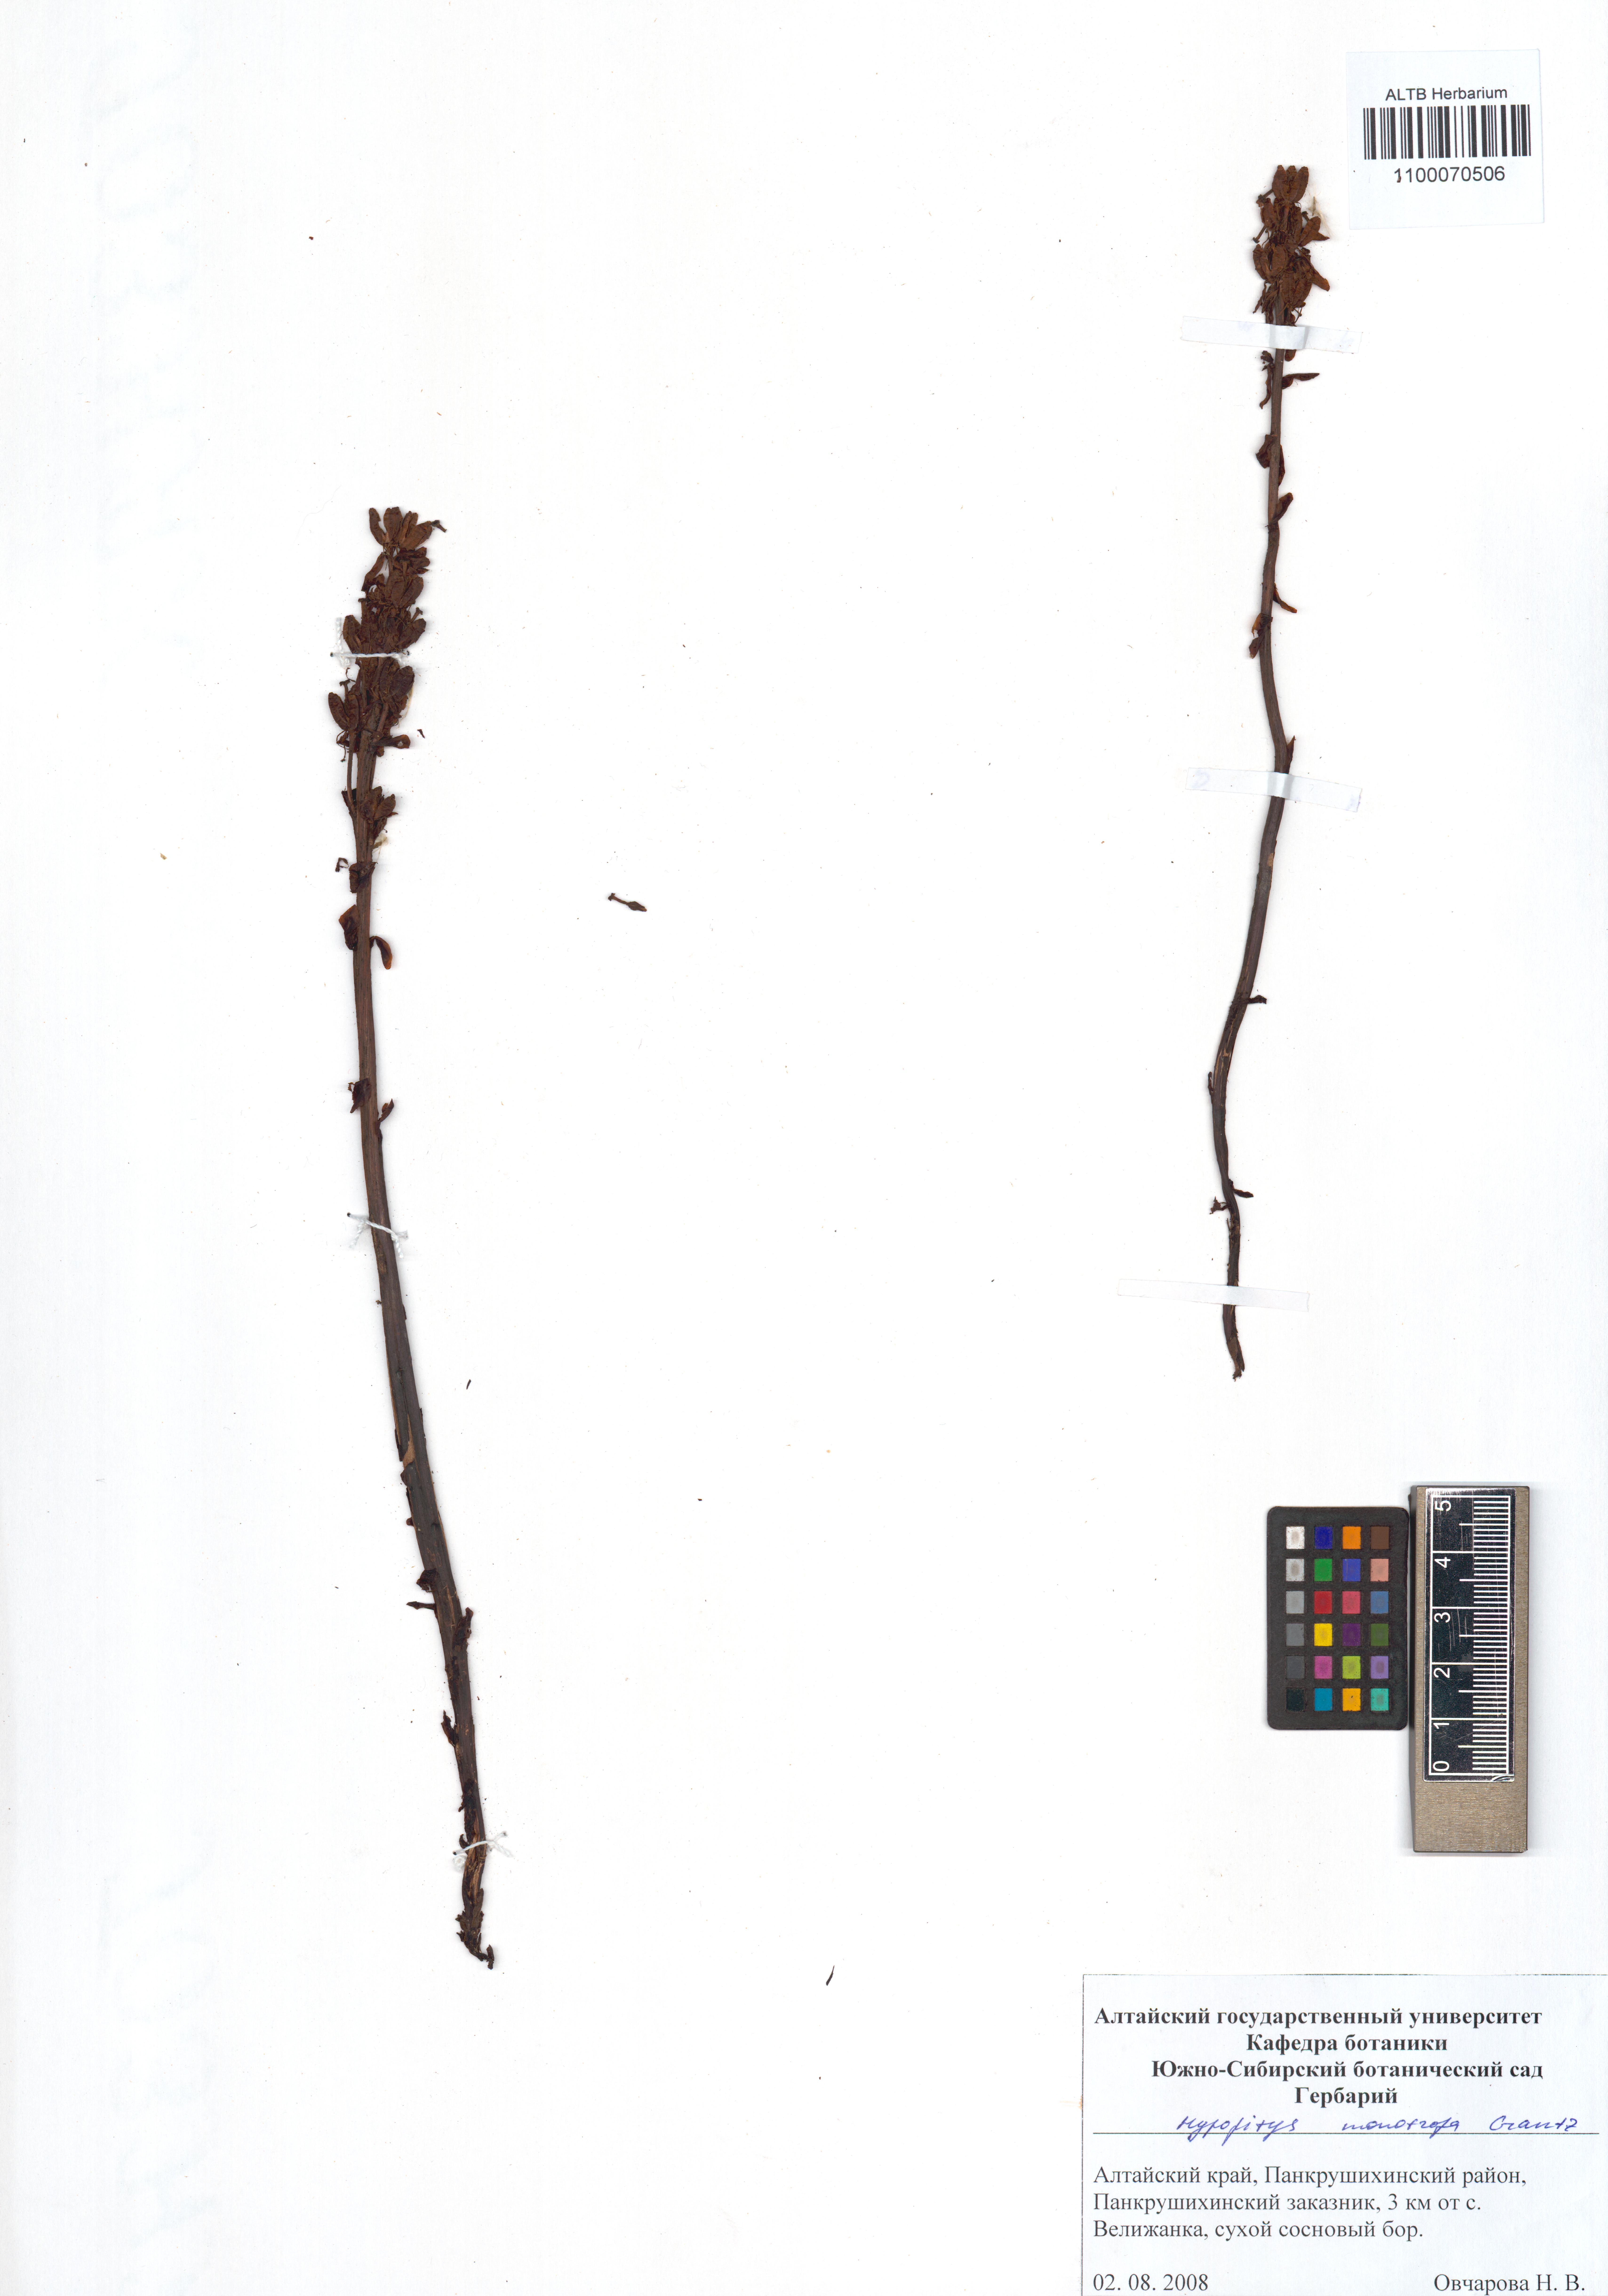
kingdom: Plantae
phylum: Tracheophyta
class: Magnoliopsida
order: Ericales
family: Ericaceae
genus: Hypopitys
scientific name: Hypopitys monotropa
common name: Yellow bird's-nest
